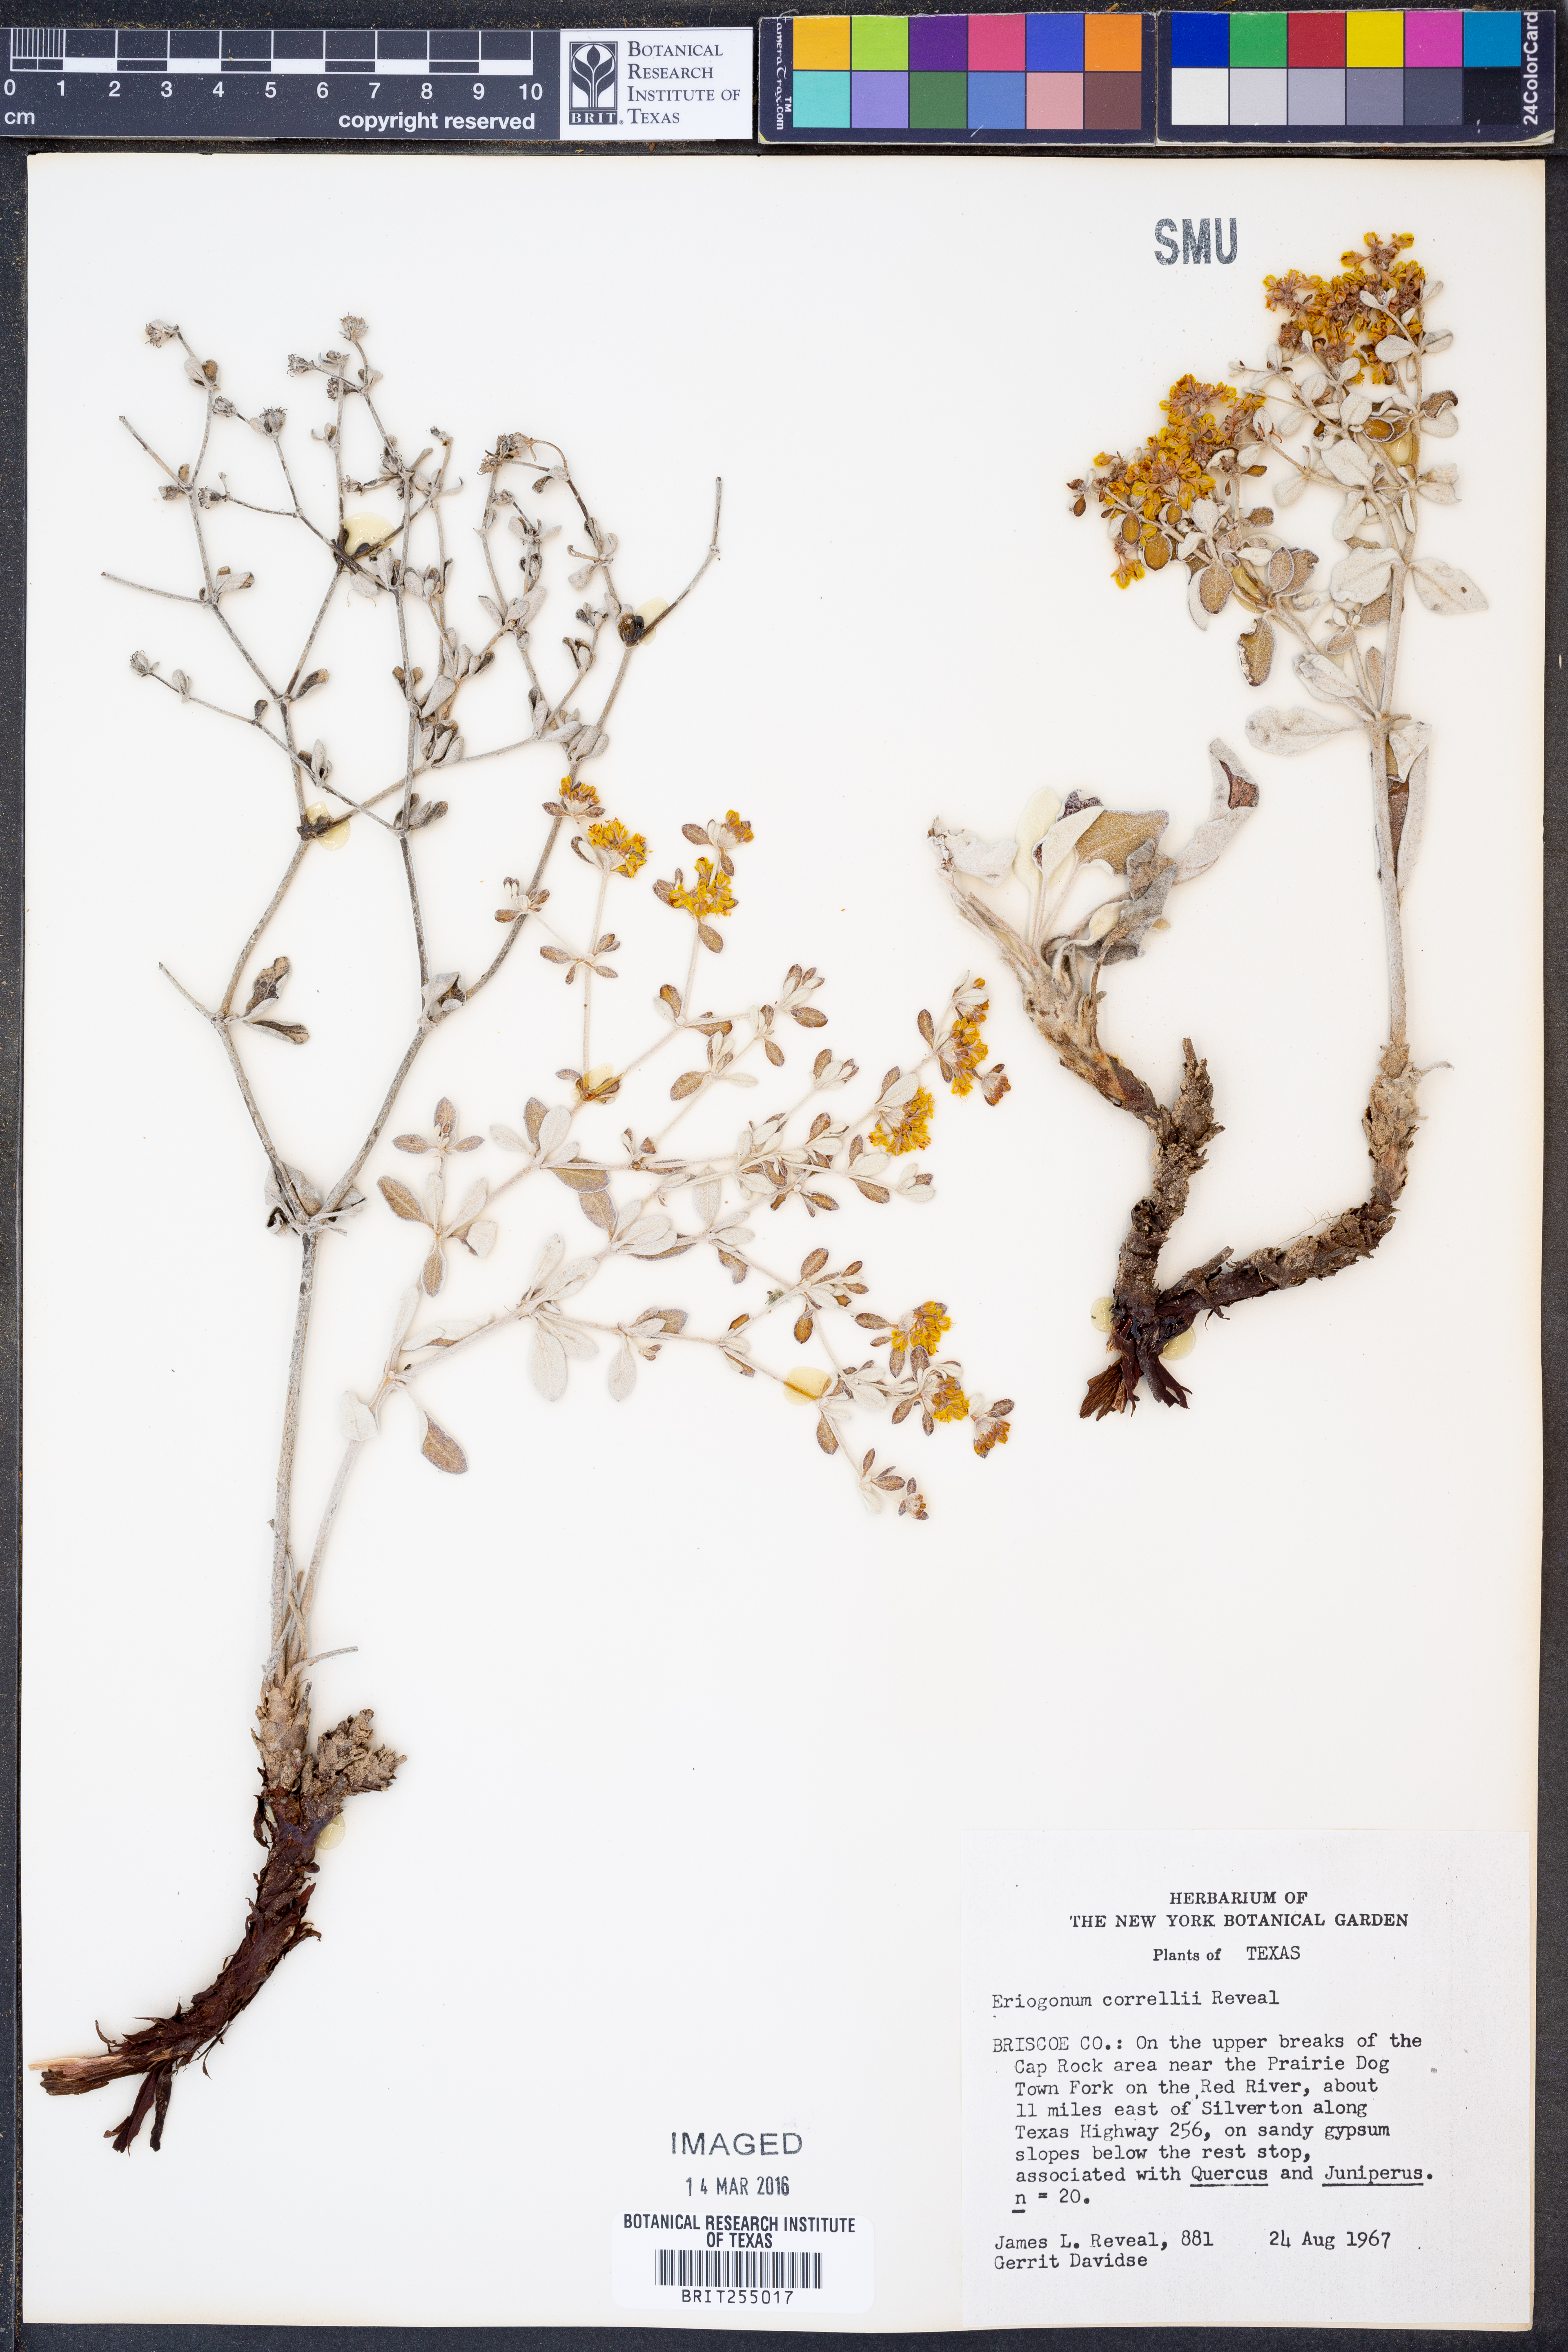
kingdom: Plantae
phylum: Tracheophyta
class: Magnoliopsida
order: Caryophyllales
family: Polygonaceae
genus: Eriogonum
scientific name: Eriogonum correllii
